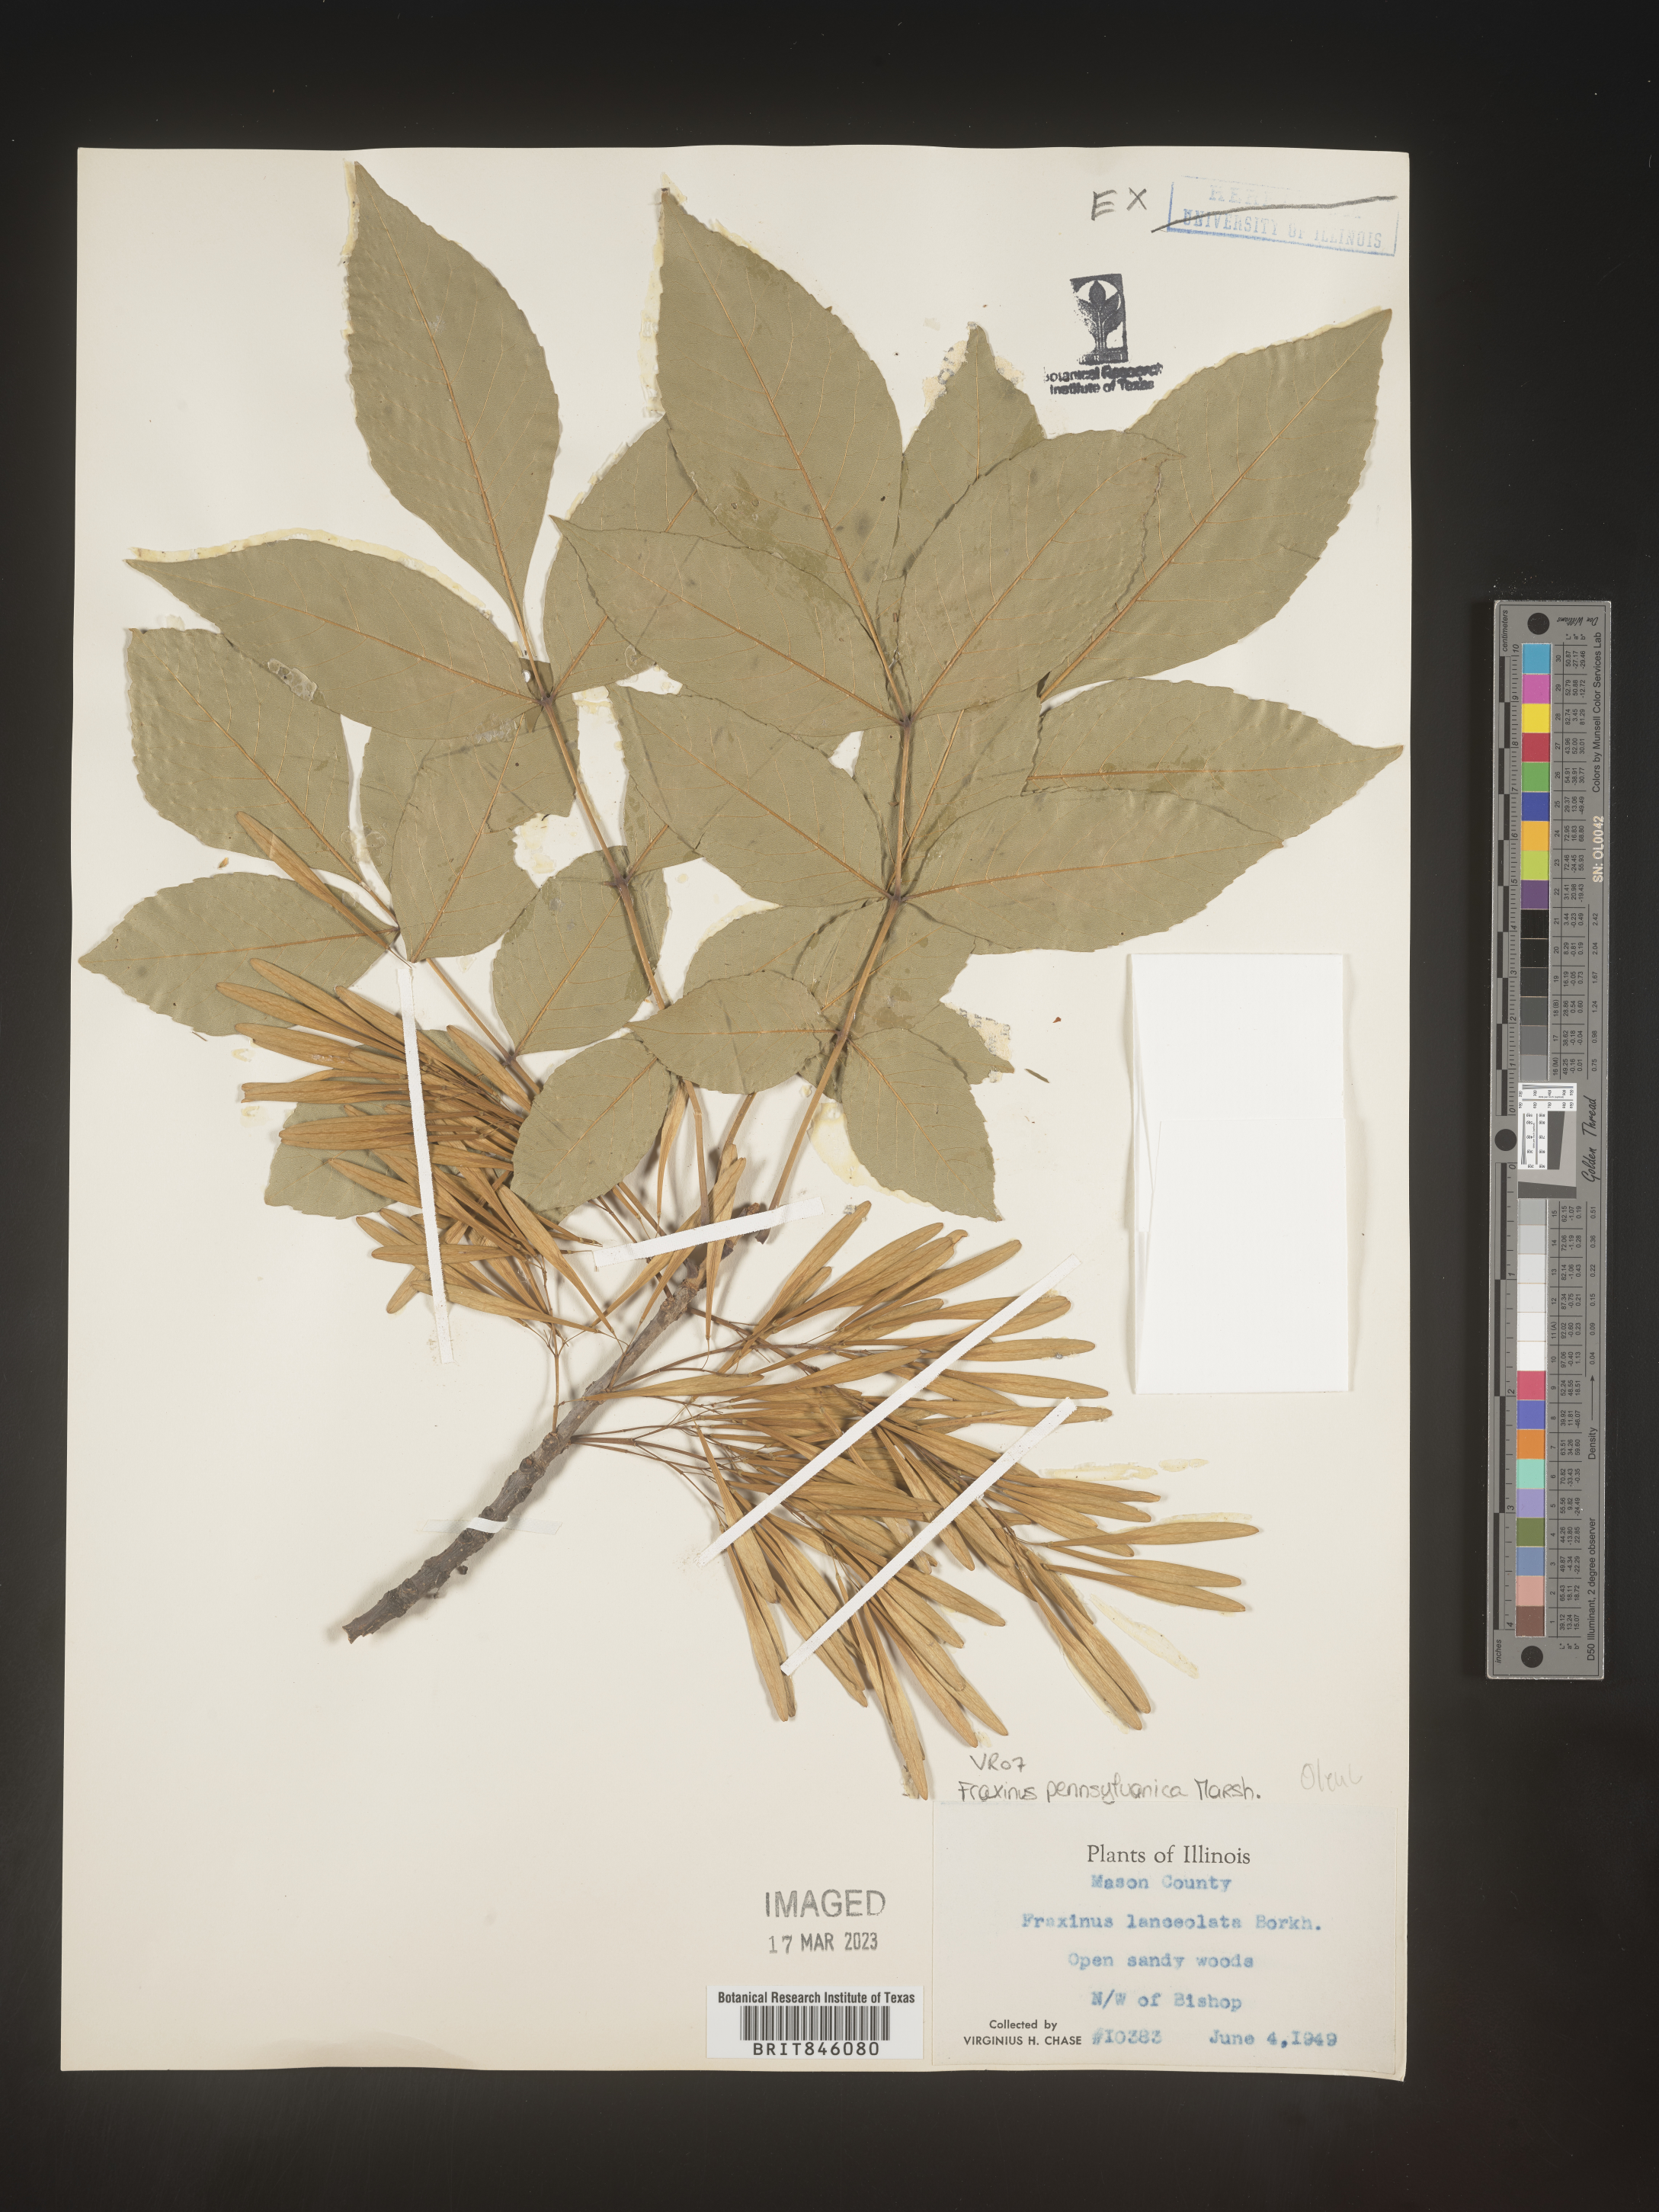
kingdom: Plantae
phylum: Tracheophyta
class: Magnoliopsida
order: Lamiales
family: Oleaceae
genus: Fraxinus
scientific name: Fraxinus pennsylvanica
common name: Green ash
